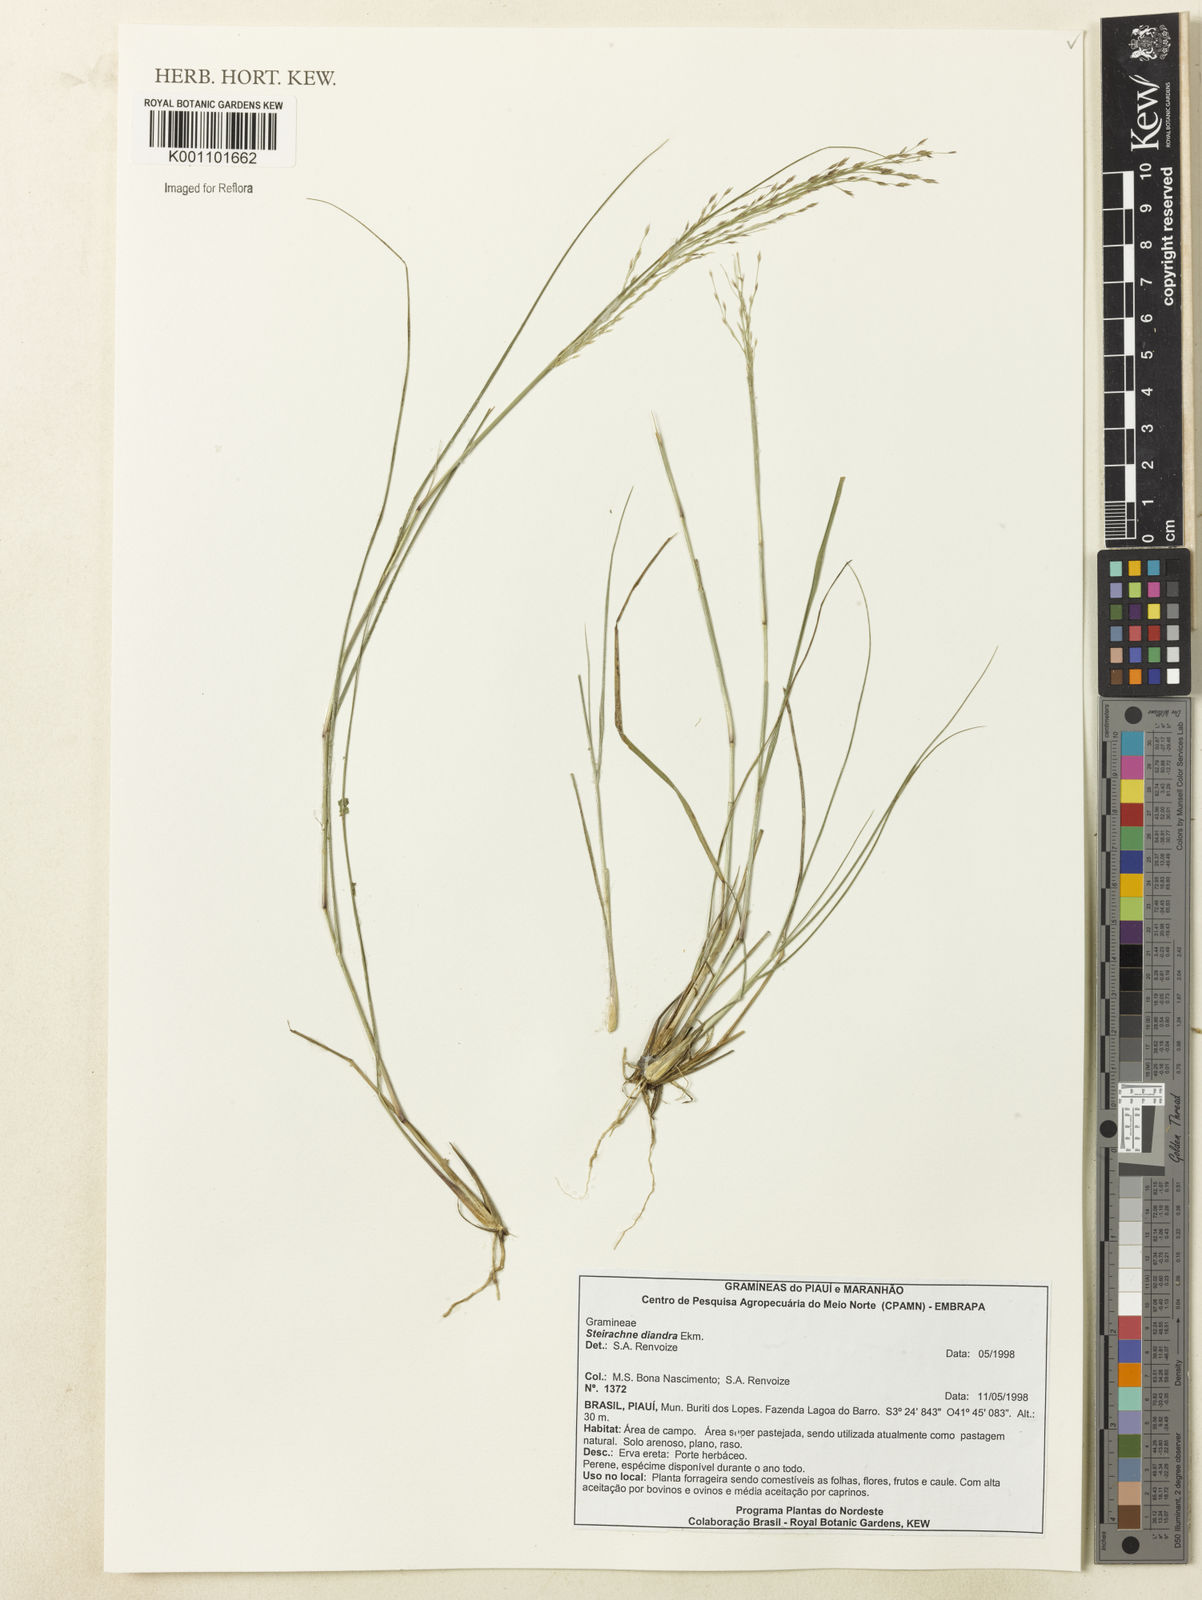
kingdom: Plantae
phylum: Tracheophyta
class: Liliopsida
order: Poales
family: Poaceae
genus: Steirachne
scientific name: Steirachne diandra
